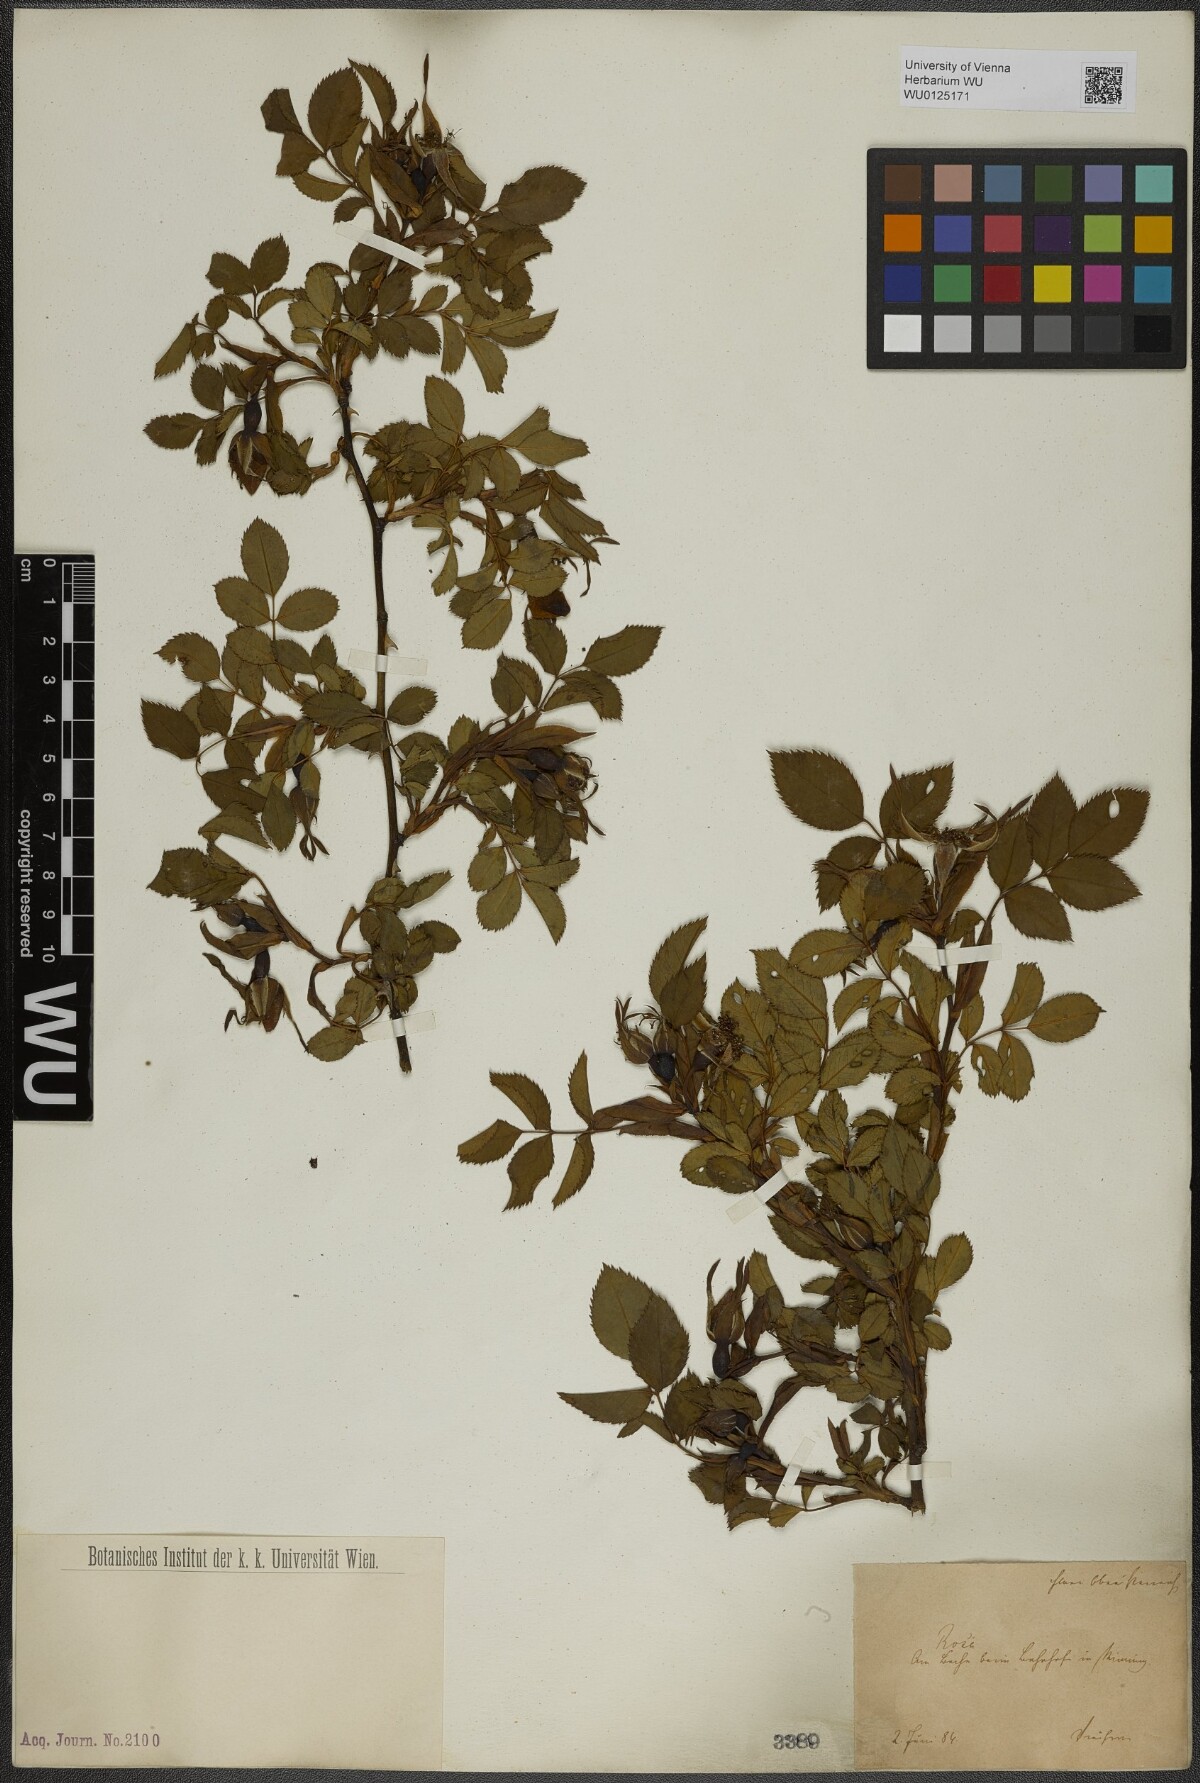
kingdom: Plantae
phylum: Tracheophyta
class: Magnoliopsida
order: Rosales
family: Rosaceae
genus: Rosa
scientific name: Rosa
